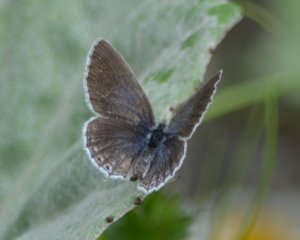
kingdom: Animalia
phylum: Arthropoda
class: Insecta
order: Lepidoptera
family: Lycaenidae
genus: Elkalyce
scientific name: Elkalyce amyntula
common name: Western Tailed-Blue
